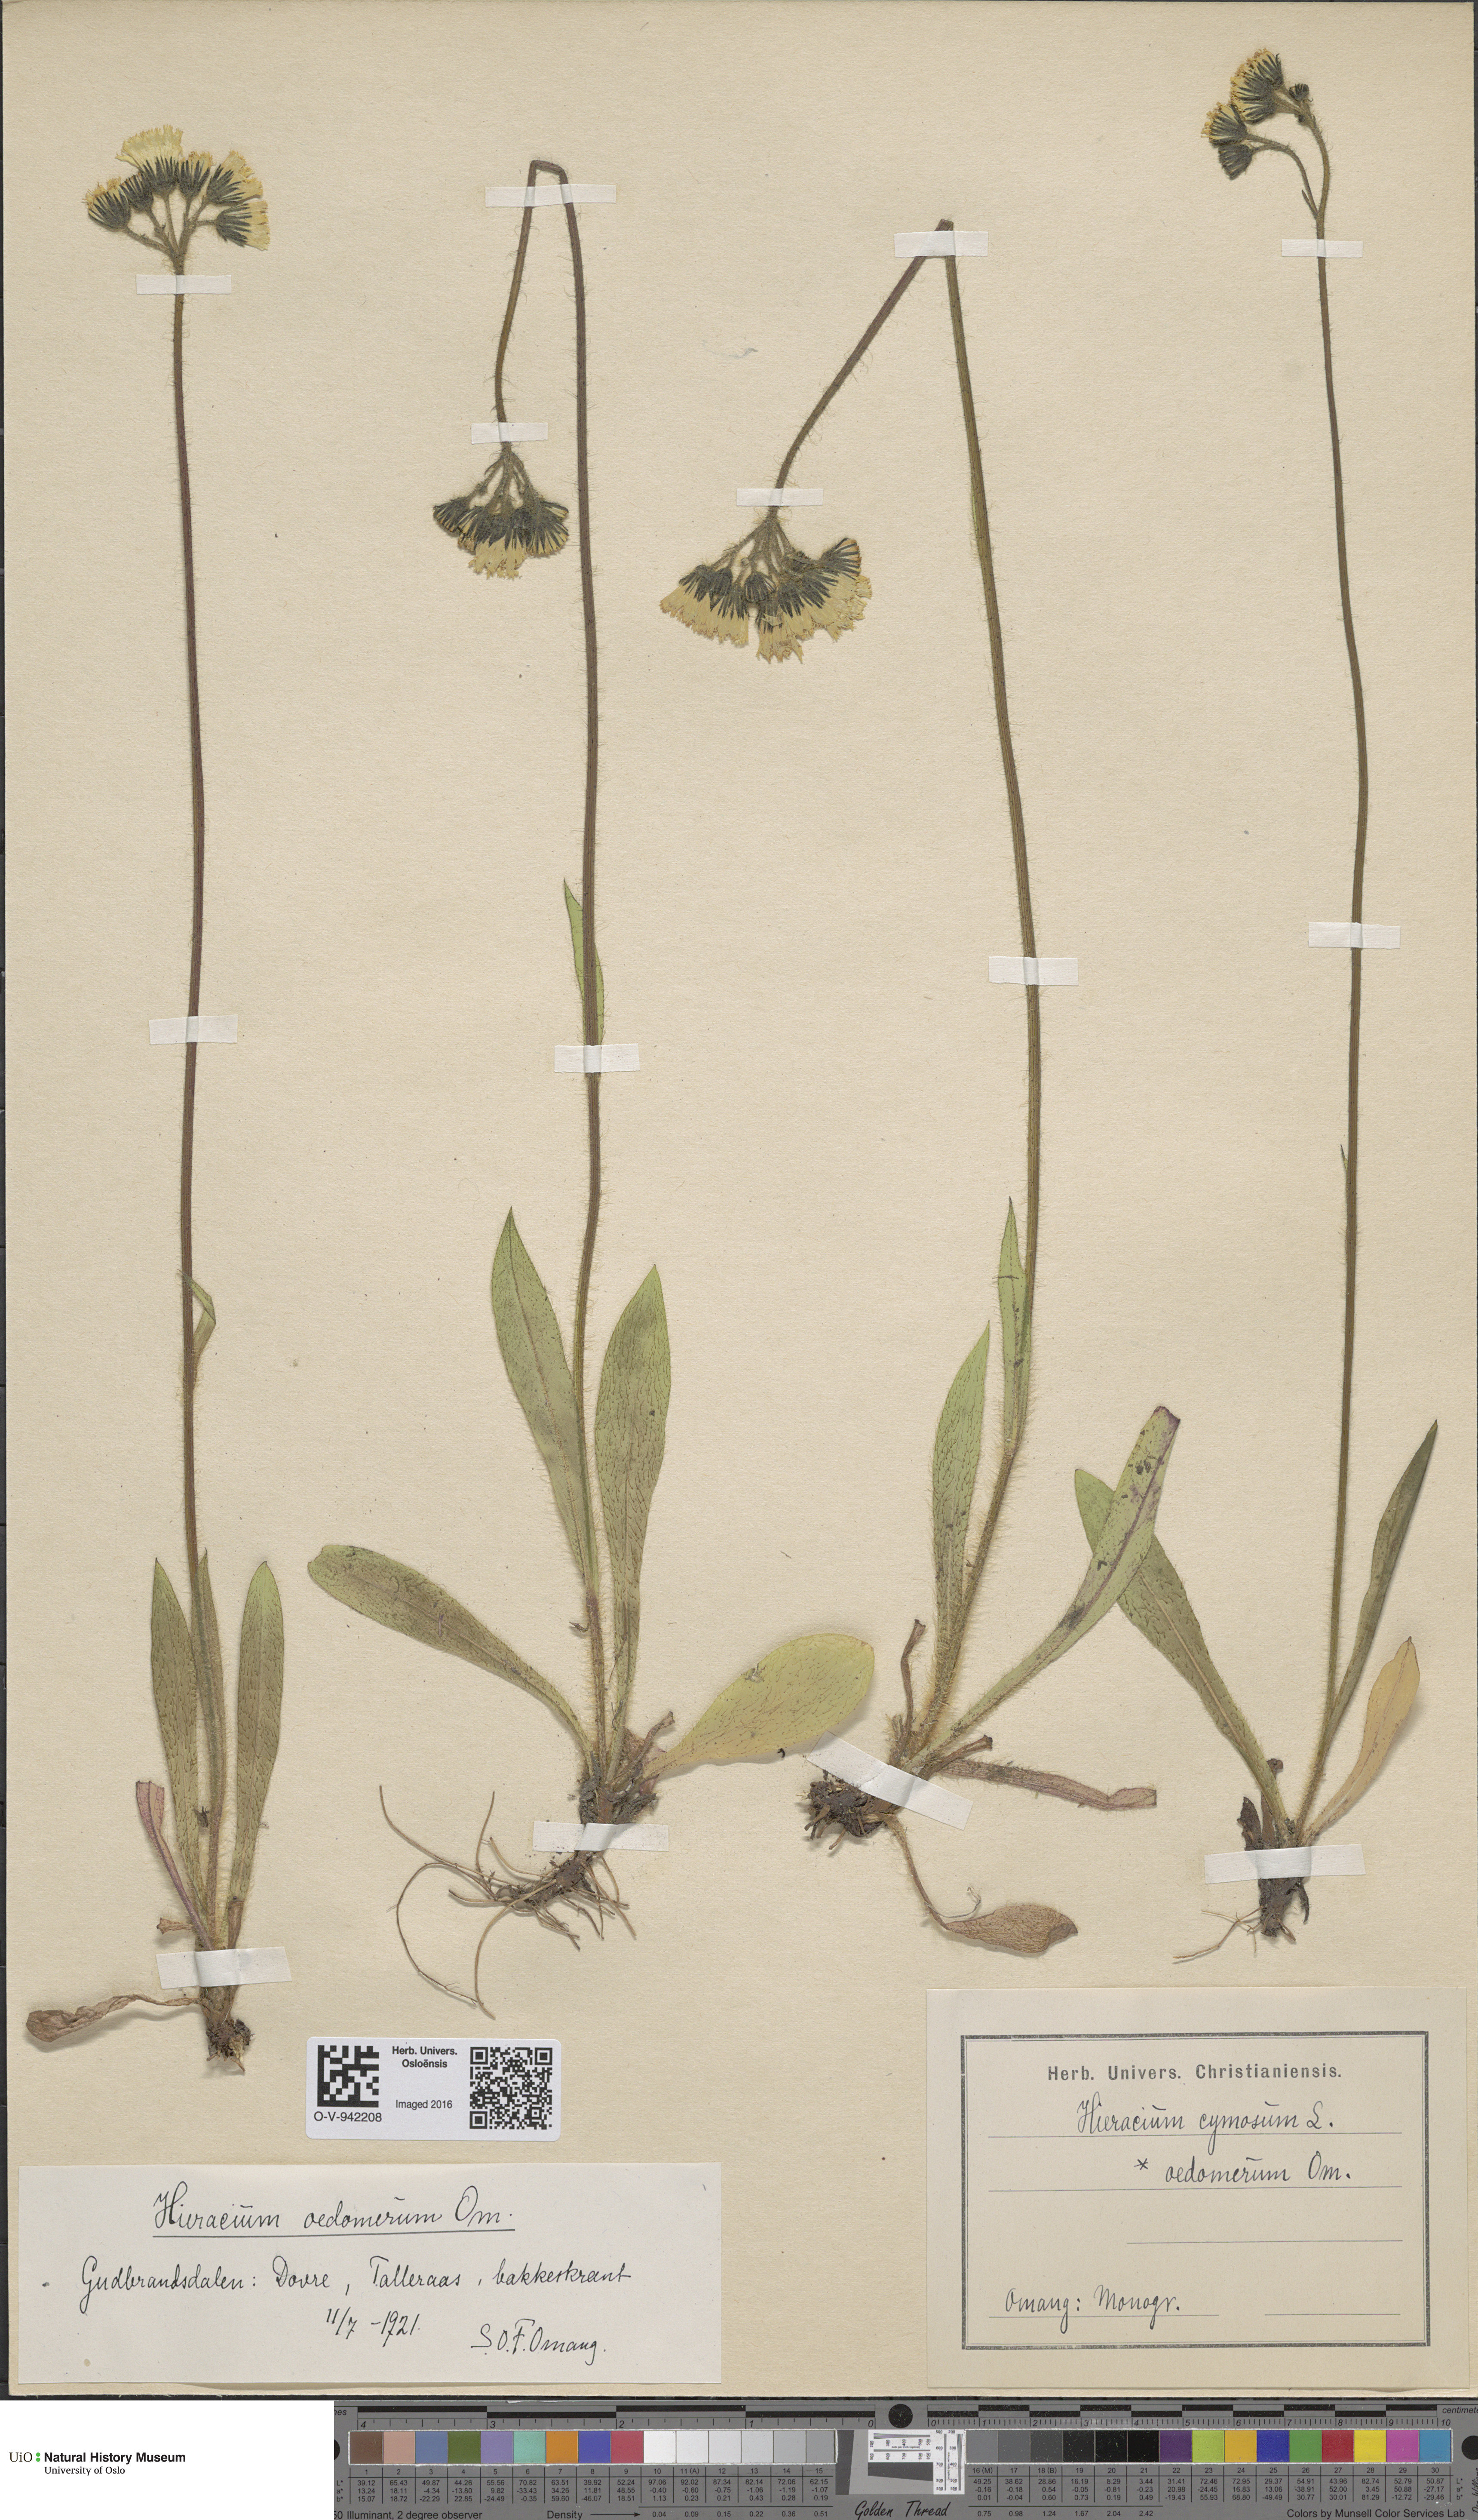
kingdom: Plantae
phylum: Tracheophyta
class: Magnoliopsida
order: Asterales
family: Asteraceae
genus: Pilosella
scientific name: Pilosella cymosa
